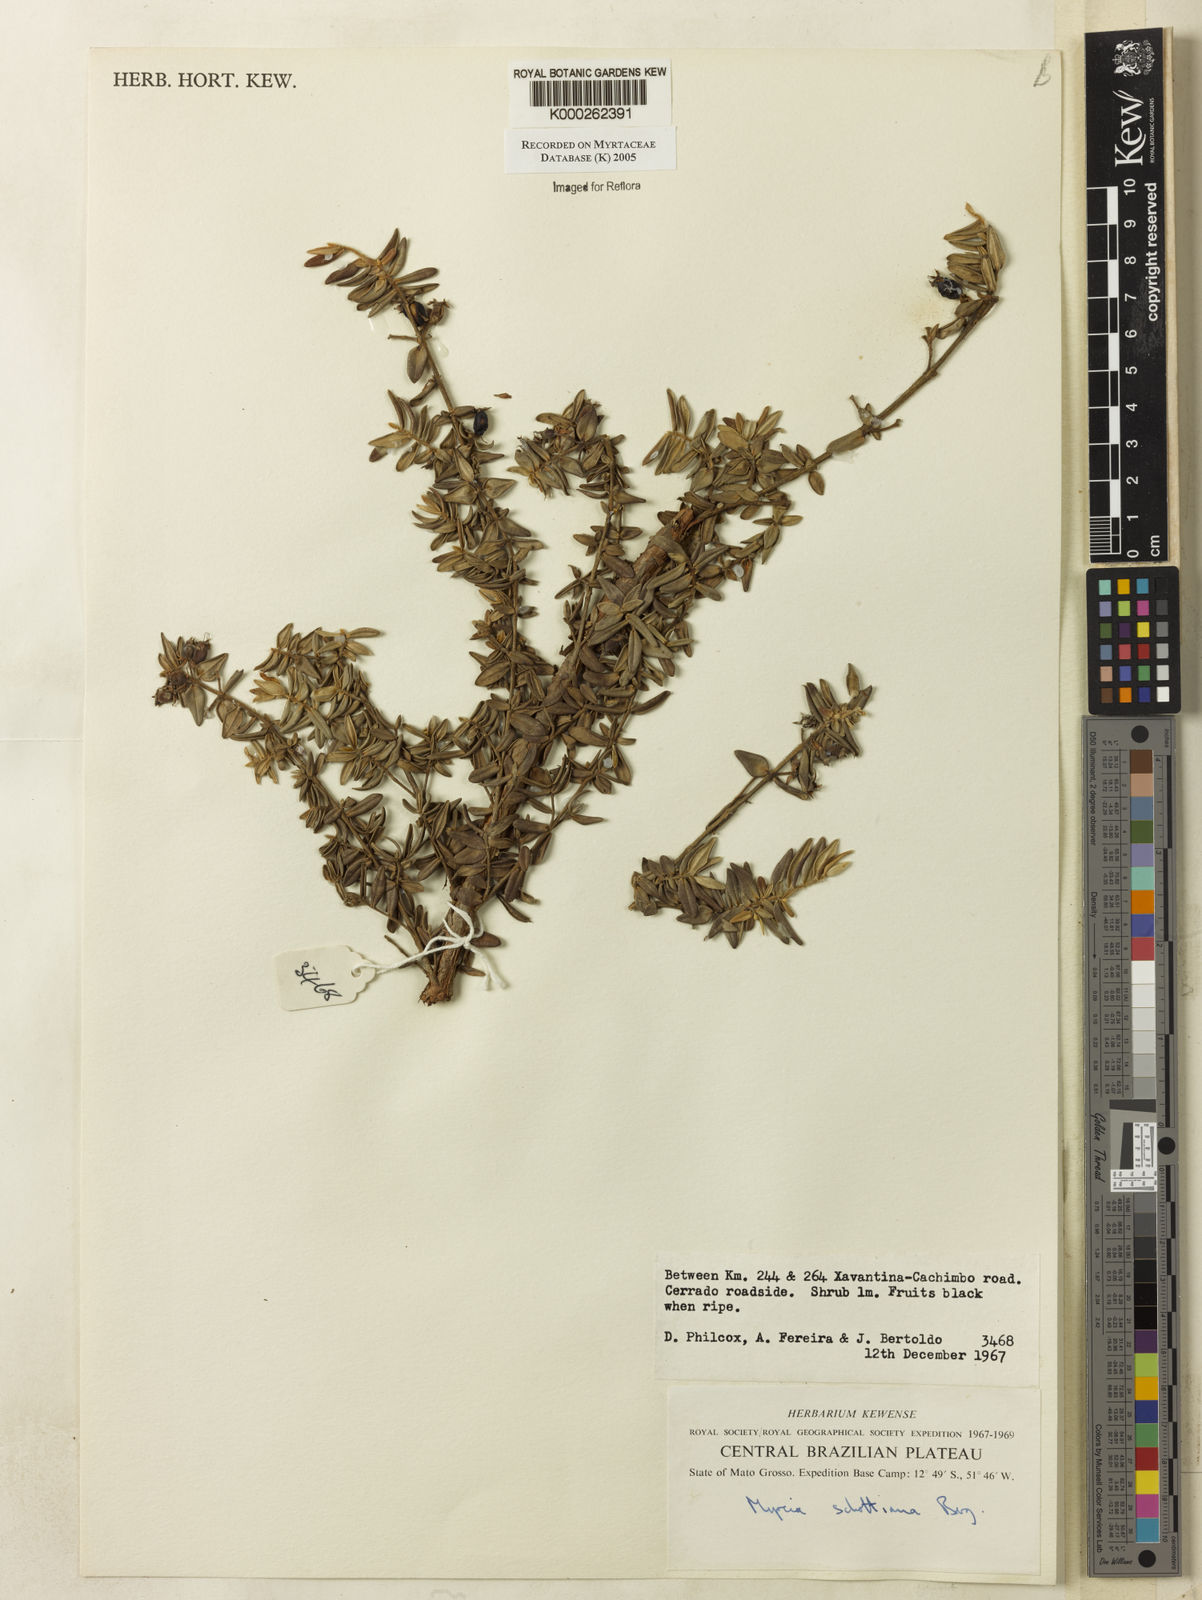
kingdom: Plantae
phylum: Tracheophyta
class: Magnoliopsida
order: Myrtales
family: Myrtaceae
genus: Myrcia
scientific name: Myrcia schottiana
